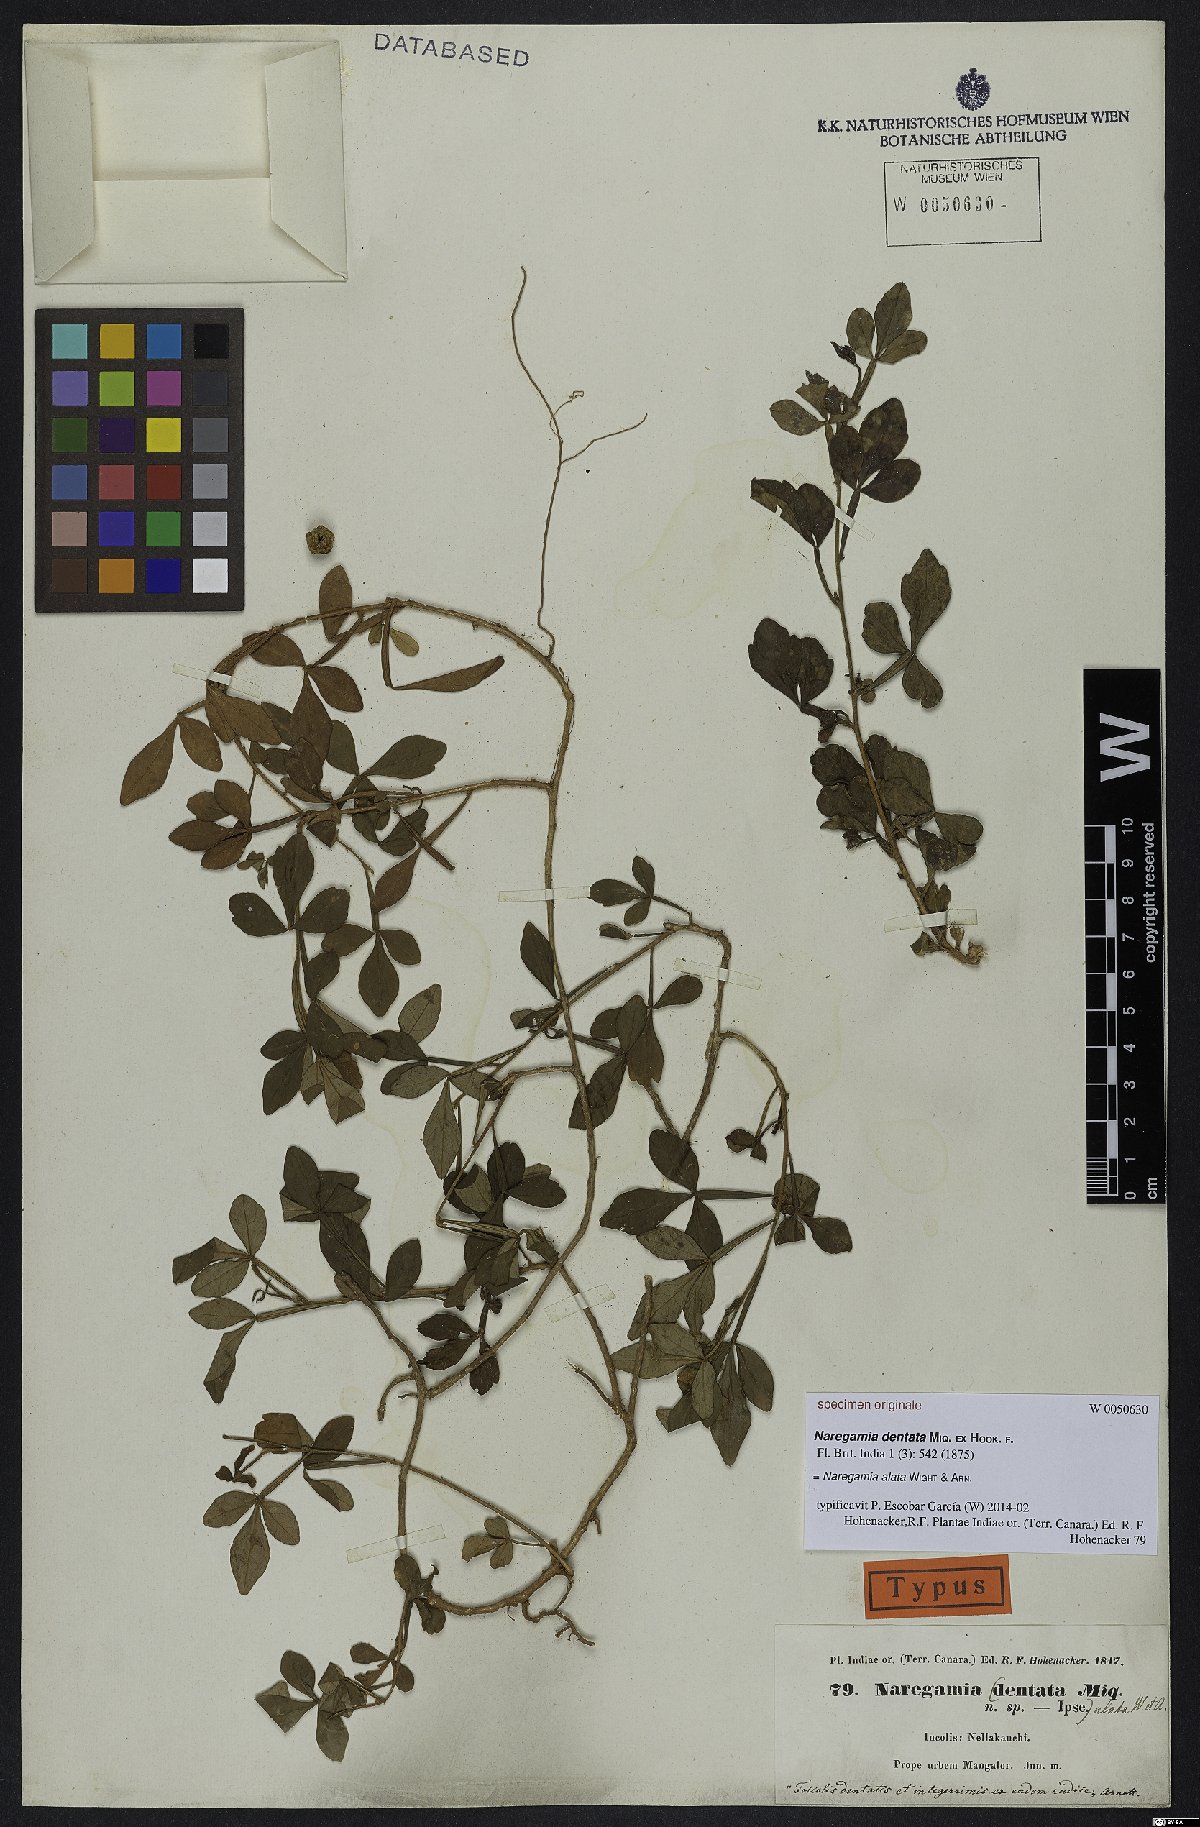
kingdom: Plantae
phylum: Tracheophyta
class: Magnoliopsida
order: Sapindales
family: Meliaceae
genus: Naregamia
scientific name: Naregamia alata
